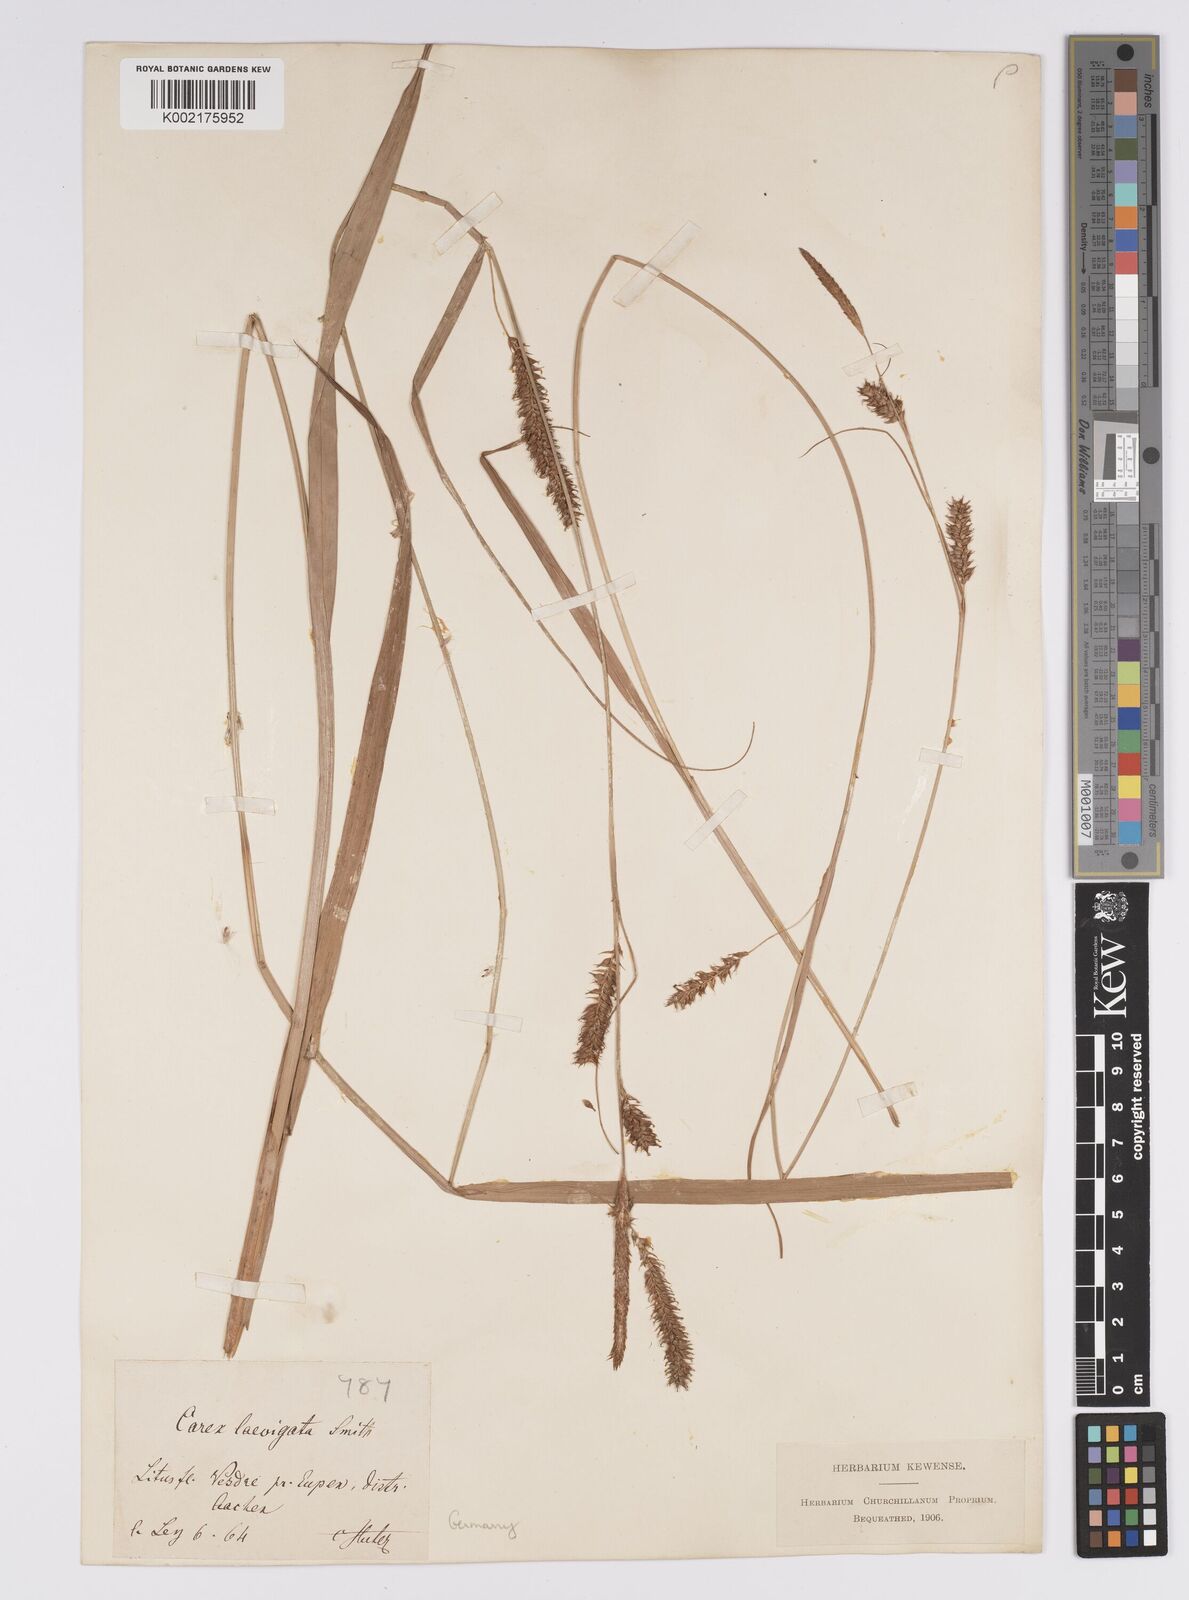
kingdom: Plantae
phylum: Tracheophyta
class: Liliopsida
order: Poales
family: Cyperaceae
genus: Carex
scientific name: Carex laevigata
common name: Smooth-stalked sedge
